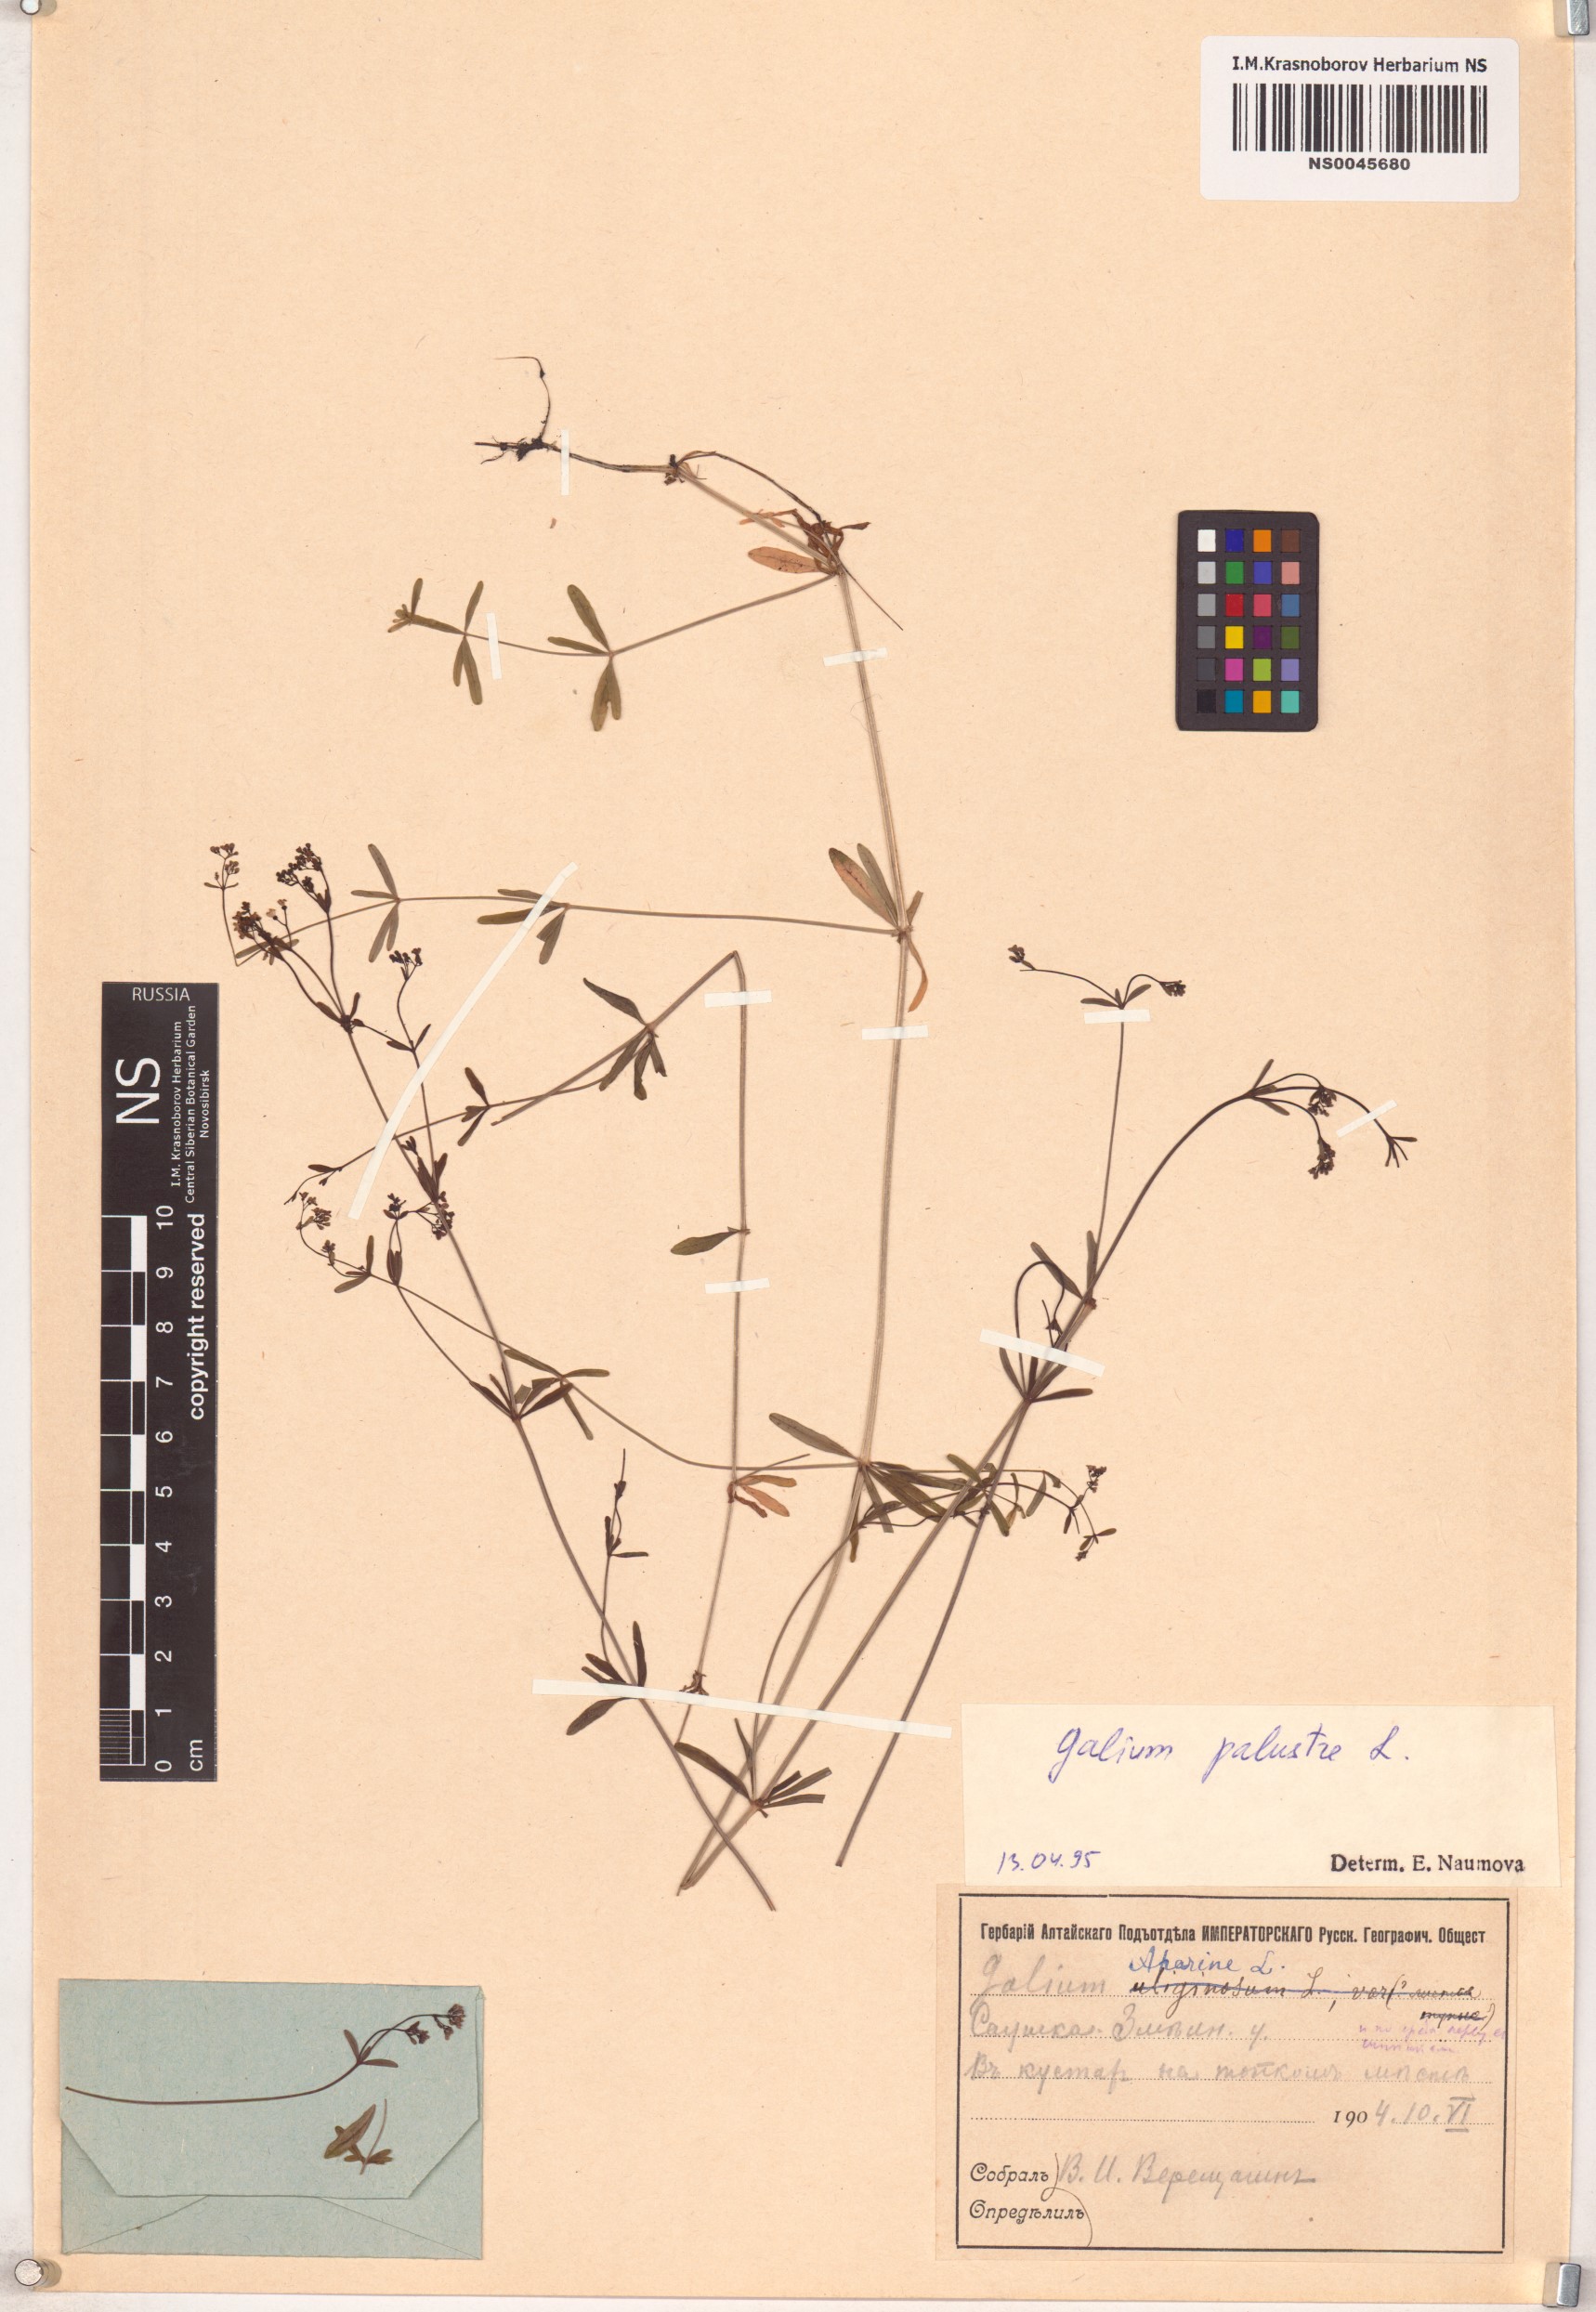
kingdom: Plantae
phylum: Tracheophyta
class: Magnoliopsida
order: Gentianales
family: Rubiaceae
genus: Galium
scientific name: Galium palustre
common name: Common marsh-bedstraw
